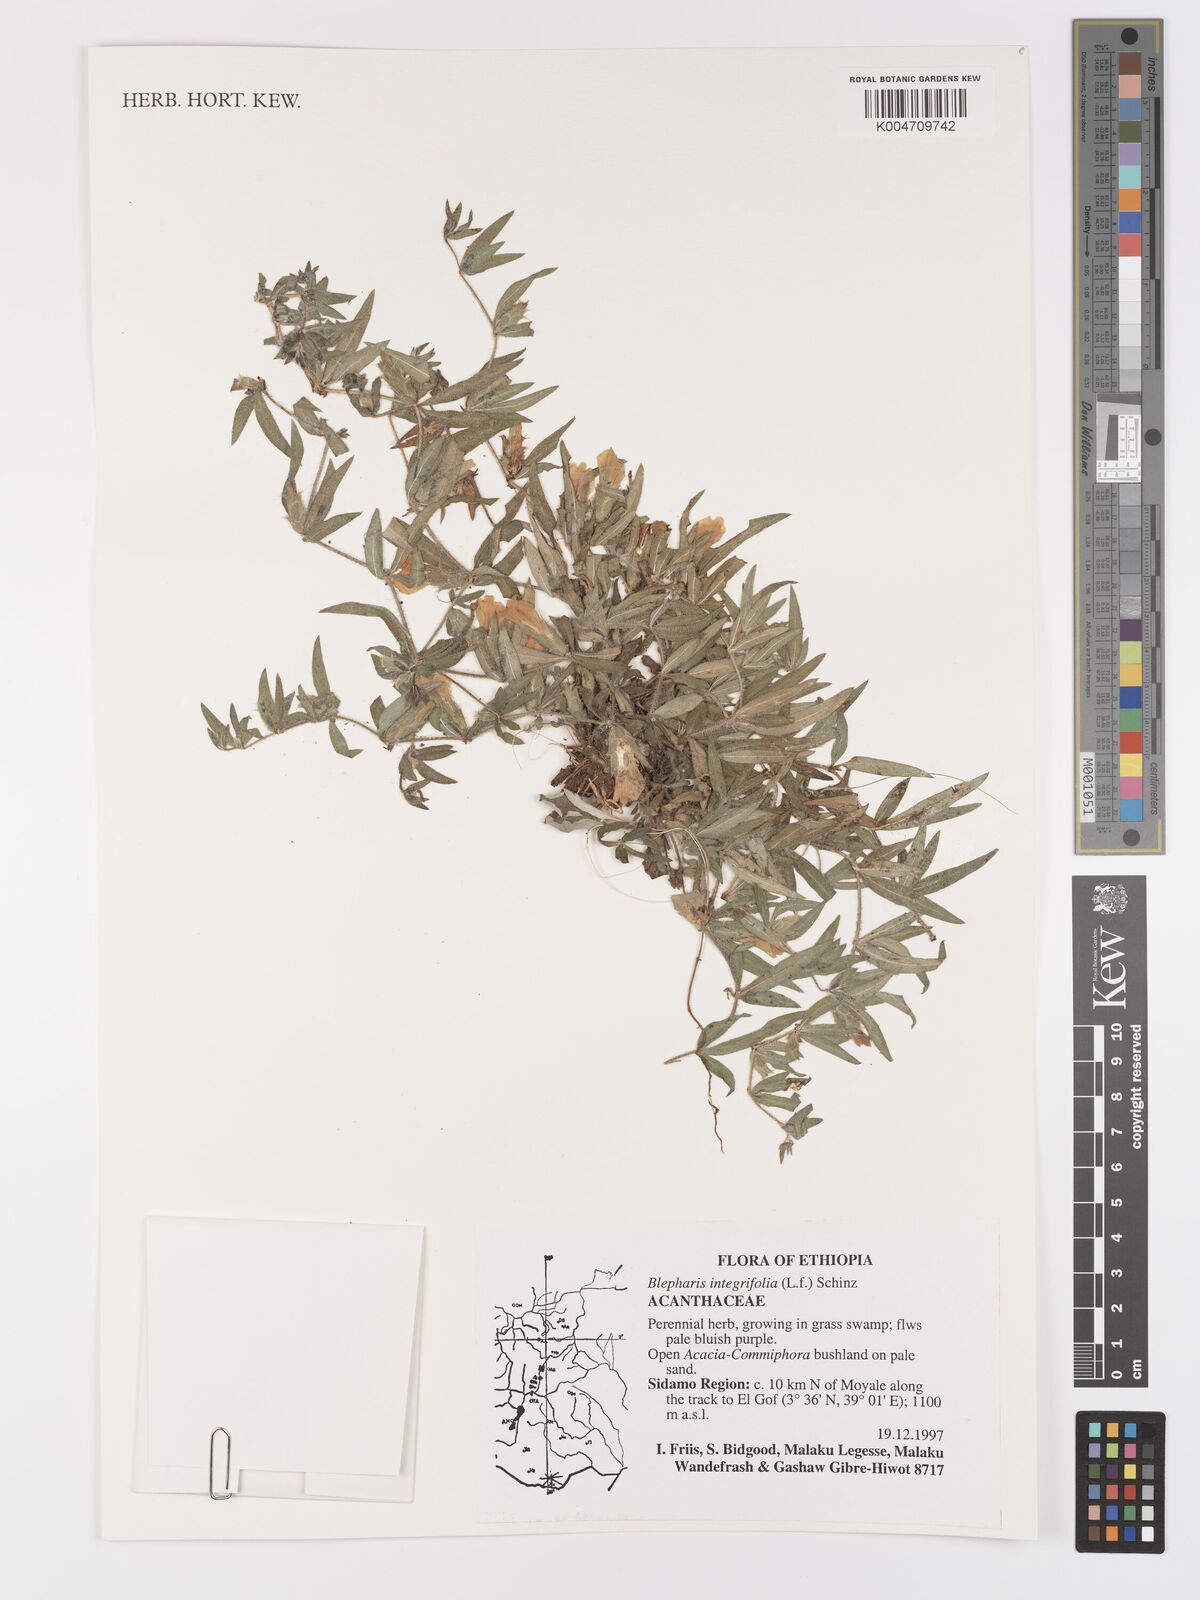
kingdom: Plantae
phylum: Tracheophyta
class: Magnoliopsida
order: Lamiales
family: Acanthaceae
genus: Blepharis
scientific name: Blepharis integrifolia
